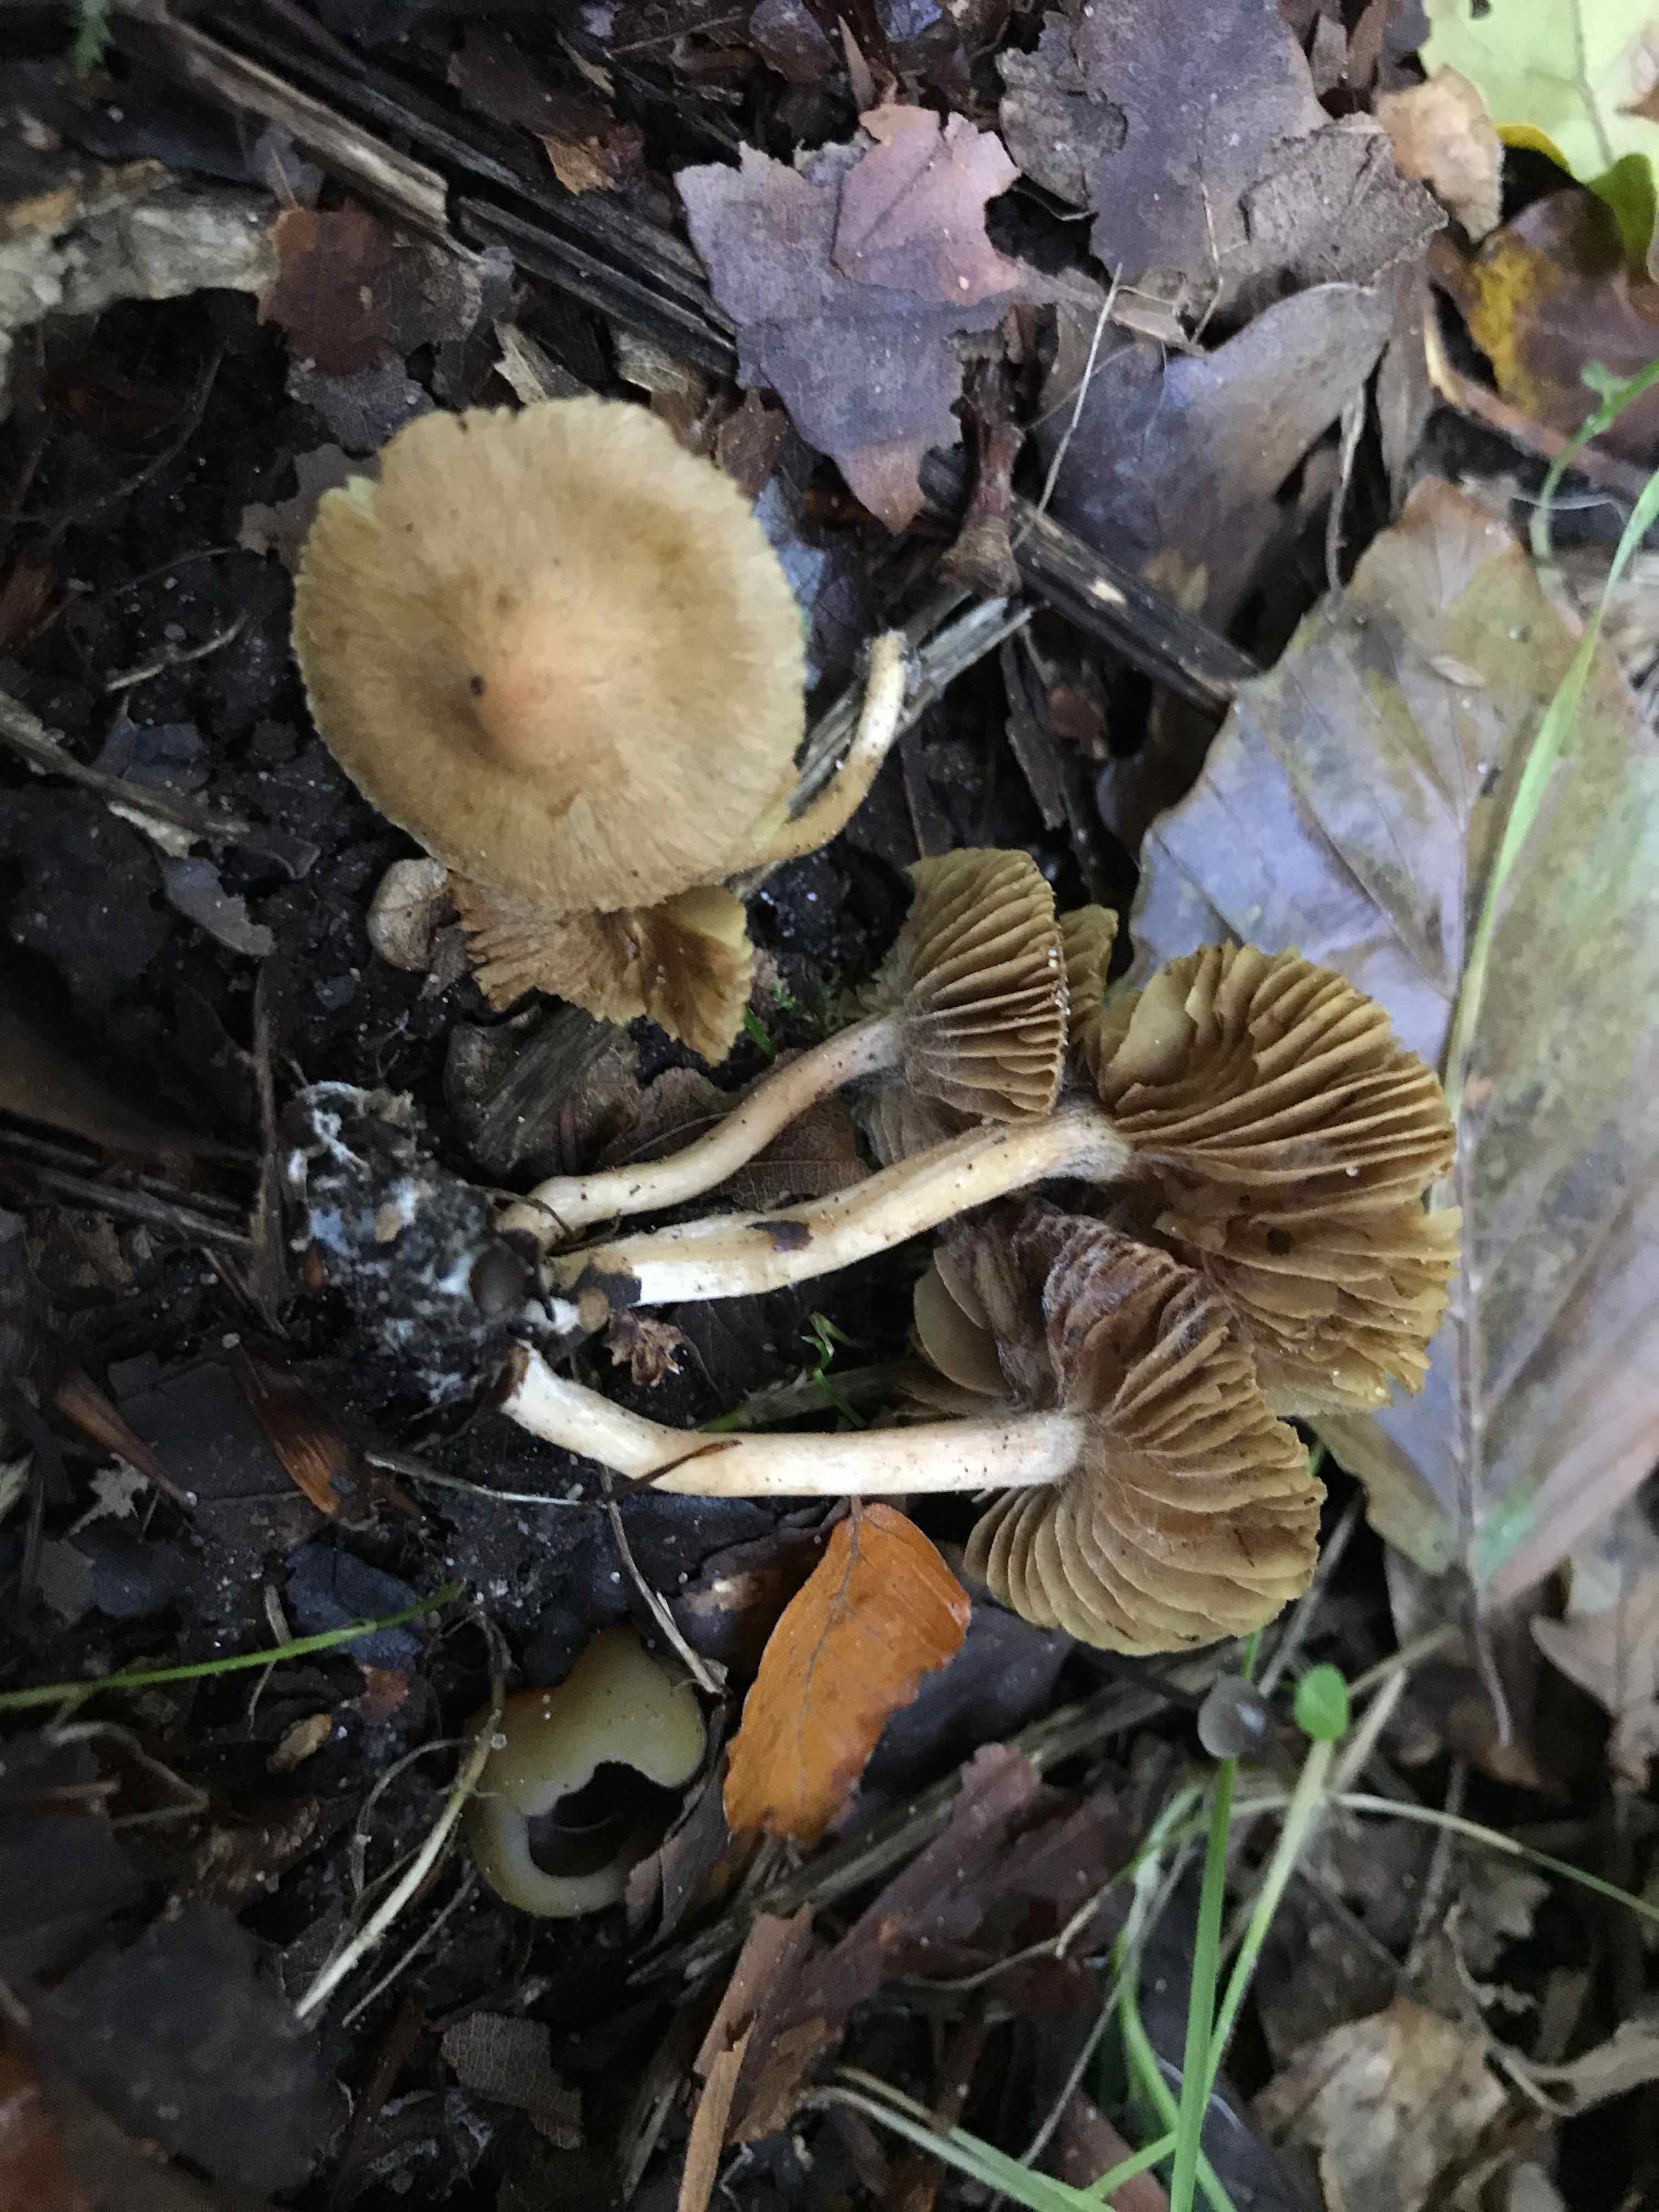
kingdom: Fungi
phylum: Basidiomycota
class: Agaricomycetes
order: Agaricales
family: Inocybaceae
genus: Inocybe
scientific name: Inocybe
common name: trævlhat
